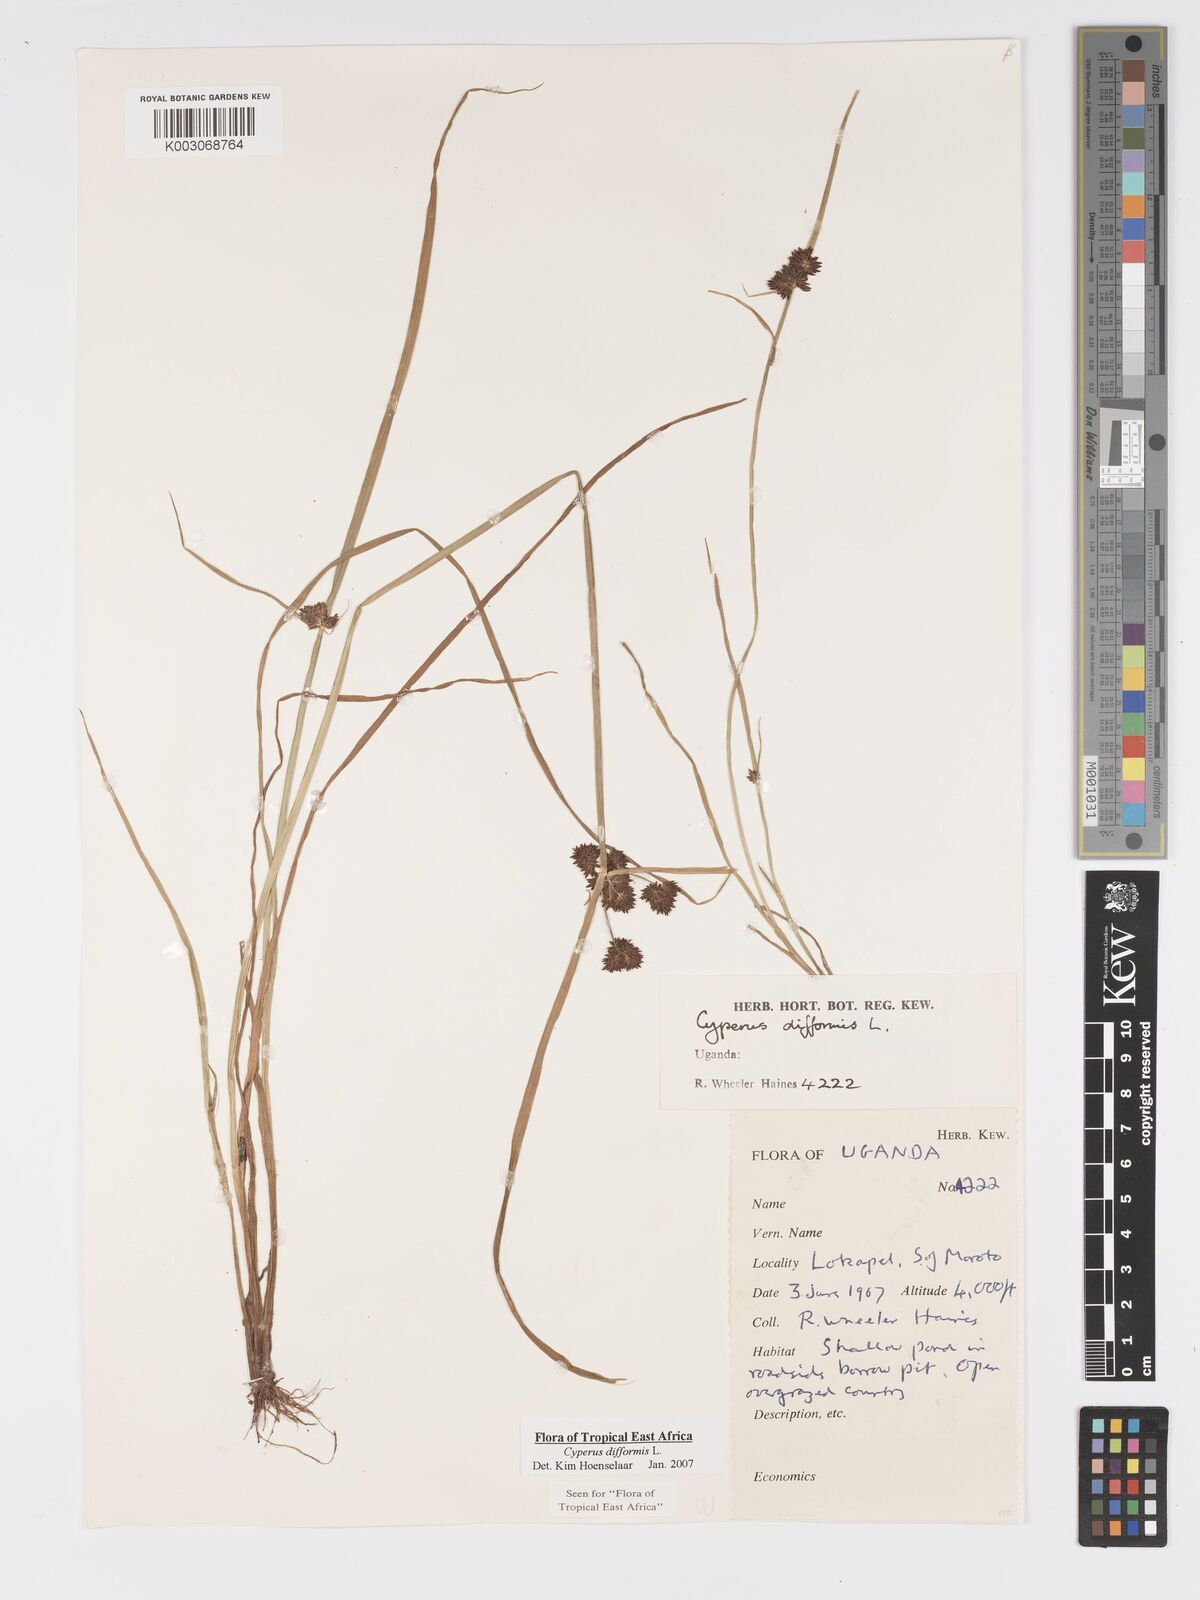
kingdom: Plantae
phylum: Tracheophyta
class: Liliopsida
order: Poales
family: Cyperaceae
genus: Cyperus
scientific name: Cyperus difformis
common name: Variable flatsedge
